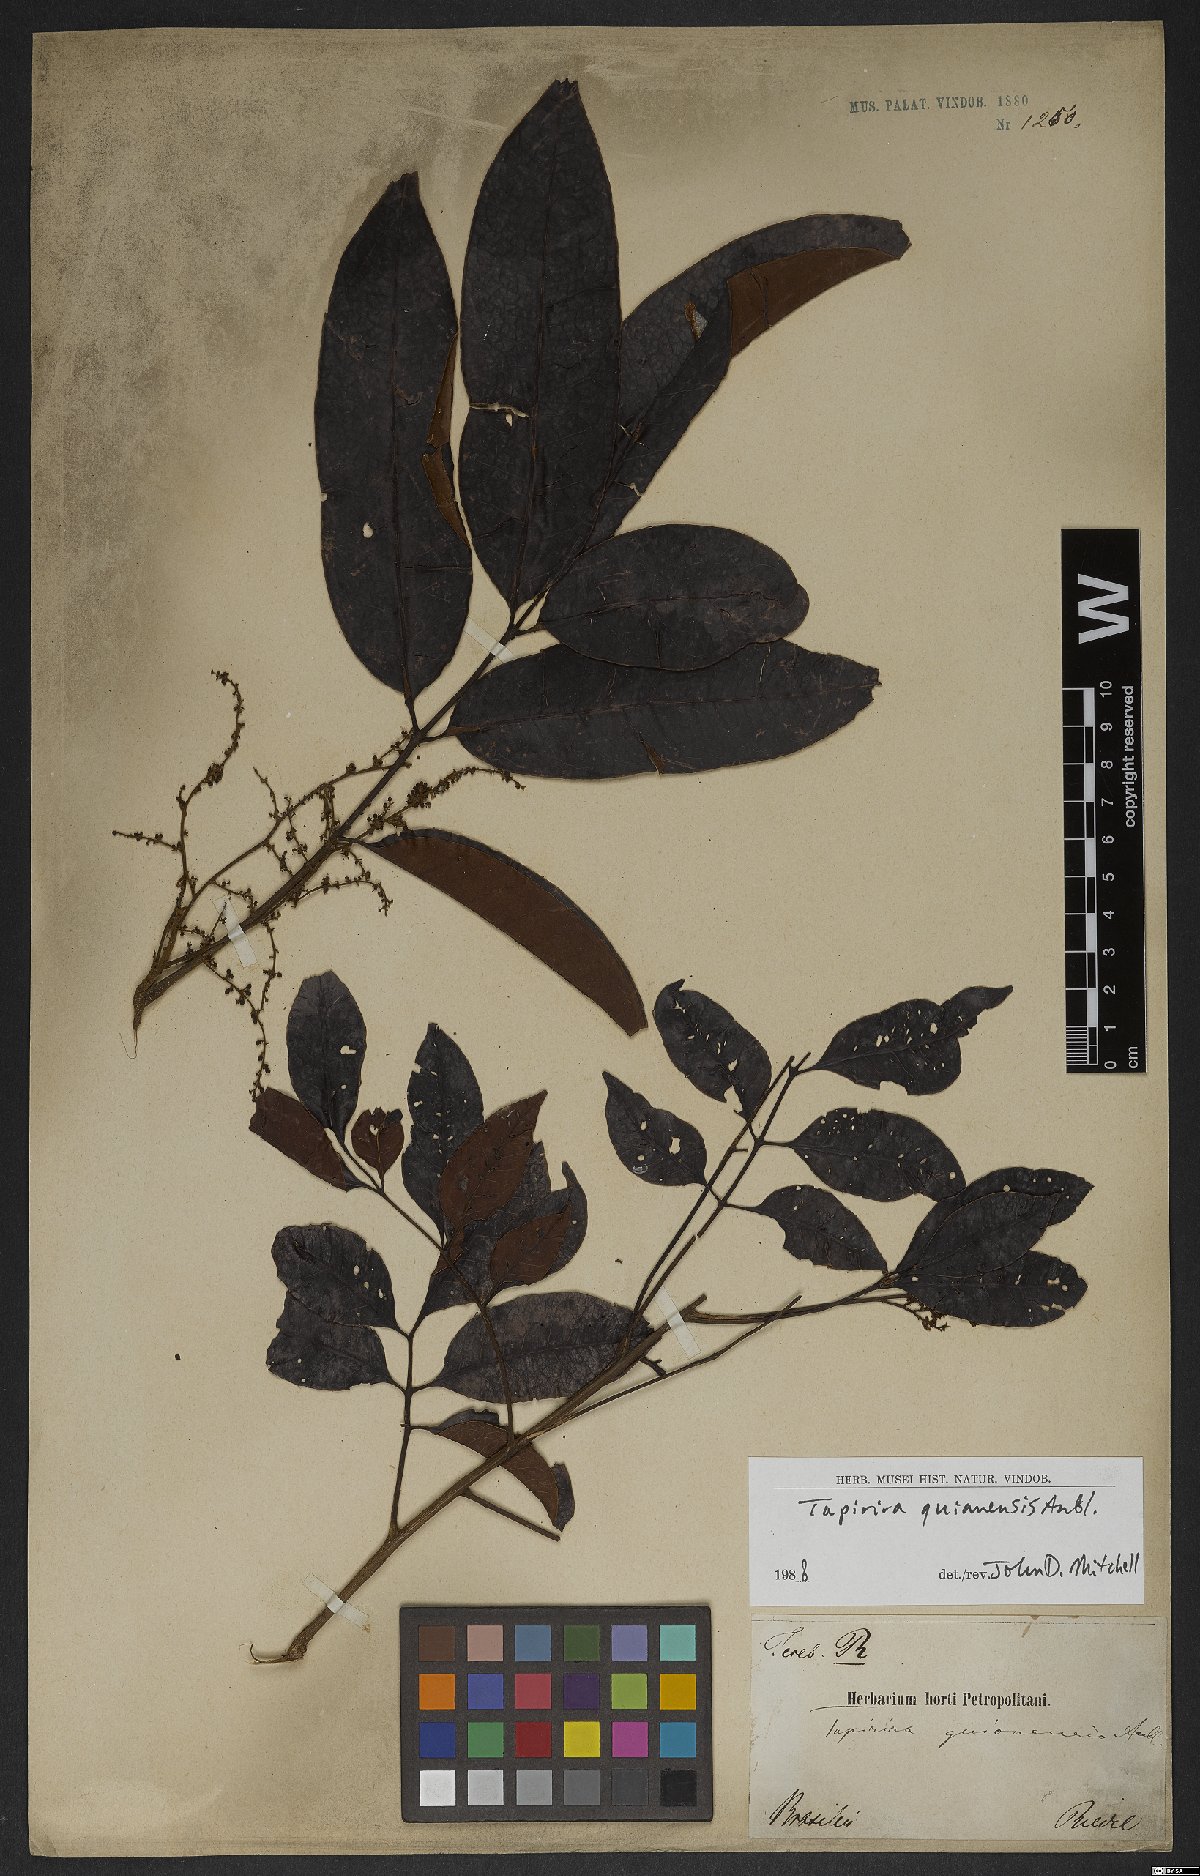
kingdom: Plantae
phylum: Tracheophyta
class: Magnoliopsida
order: Sapindales
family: Anacardiaceae
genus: Tapirira
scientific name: Tapirira guianensis
